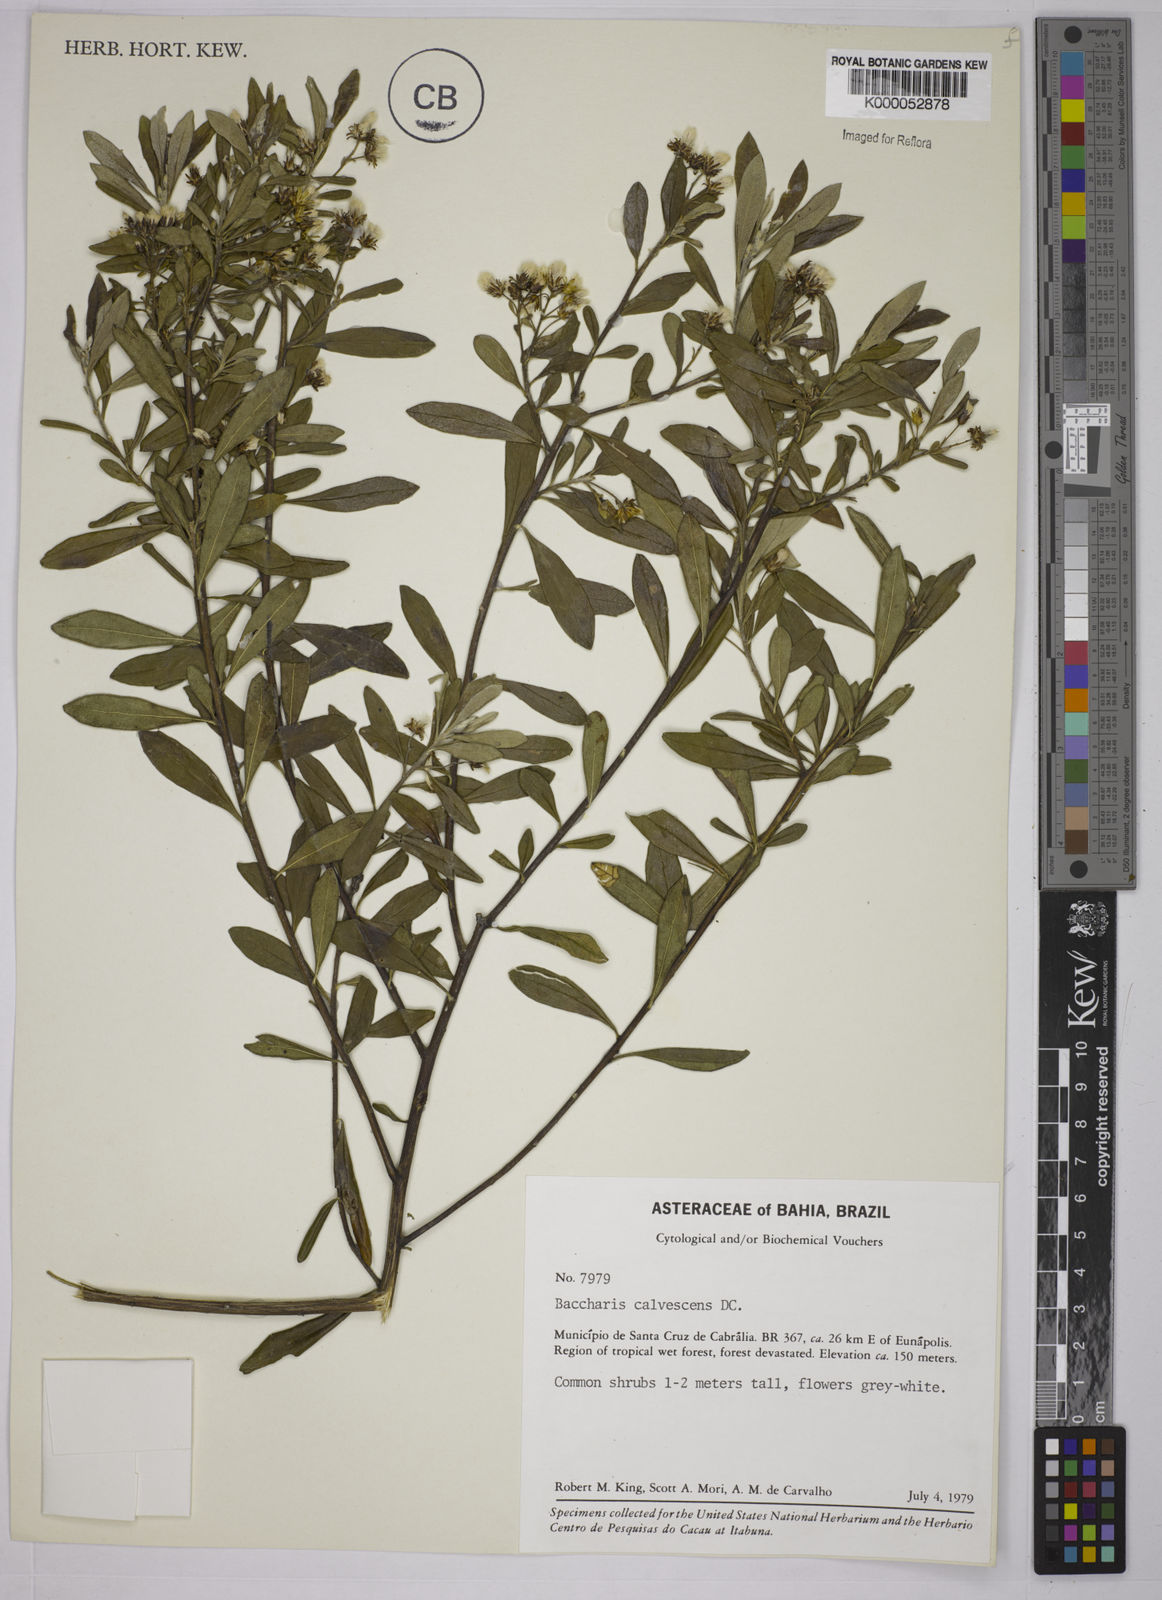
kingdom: Plantae
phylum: Tracheophyta
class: Magnoliopsida
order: Asterales
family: Asteraceae
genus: Baccharis
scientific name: Baccharis calvescens
